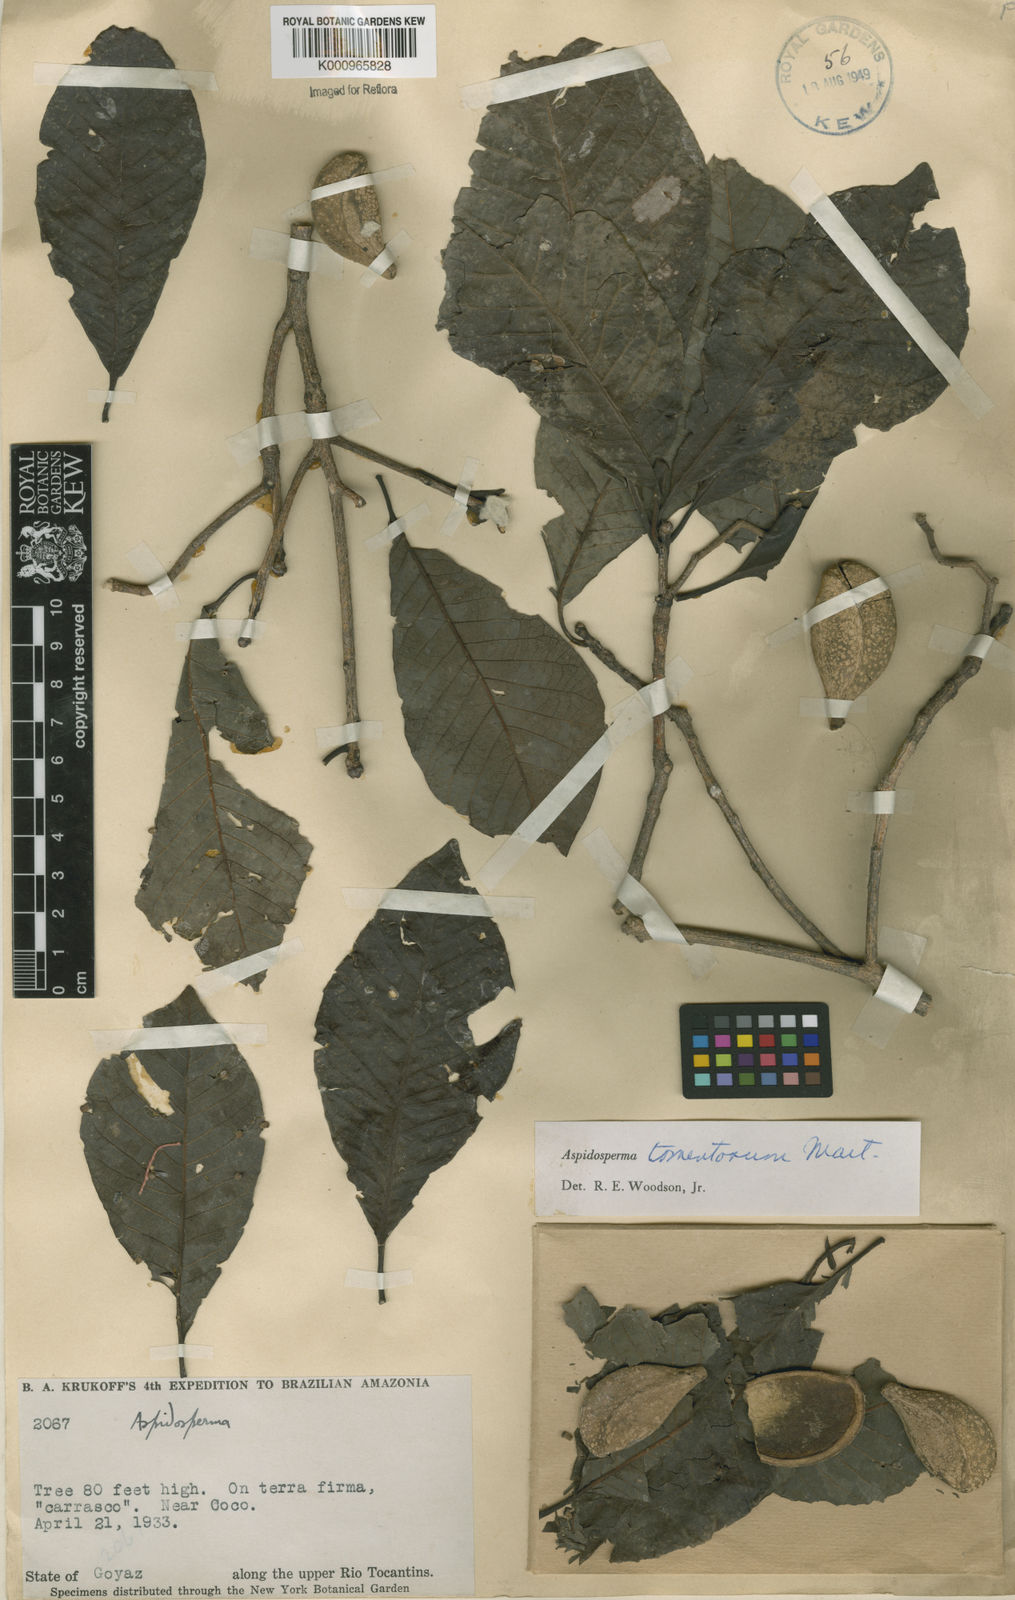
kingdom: Plantae
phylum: Tracheophyta
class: Magnoliopsida
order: Gentianales
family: Apocynaceae
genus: Aspidosperma
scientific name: Aspidosperma tomentosum
